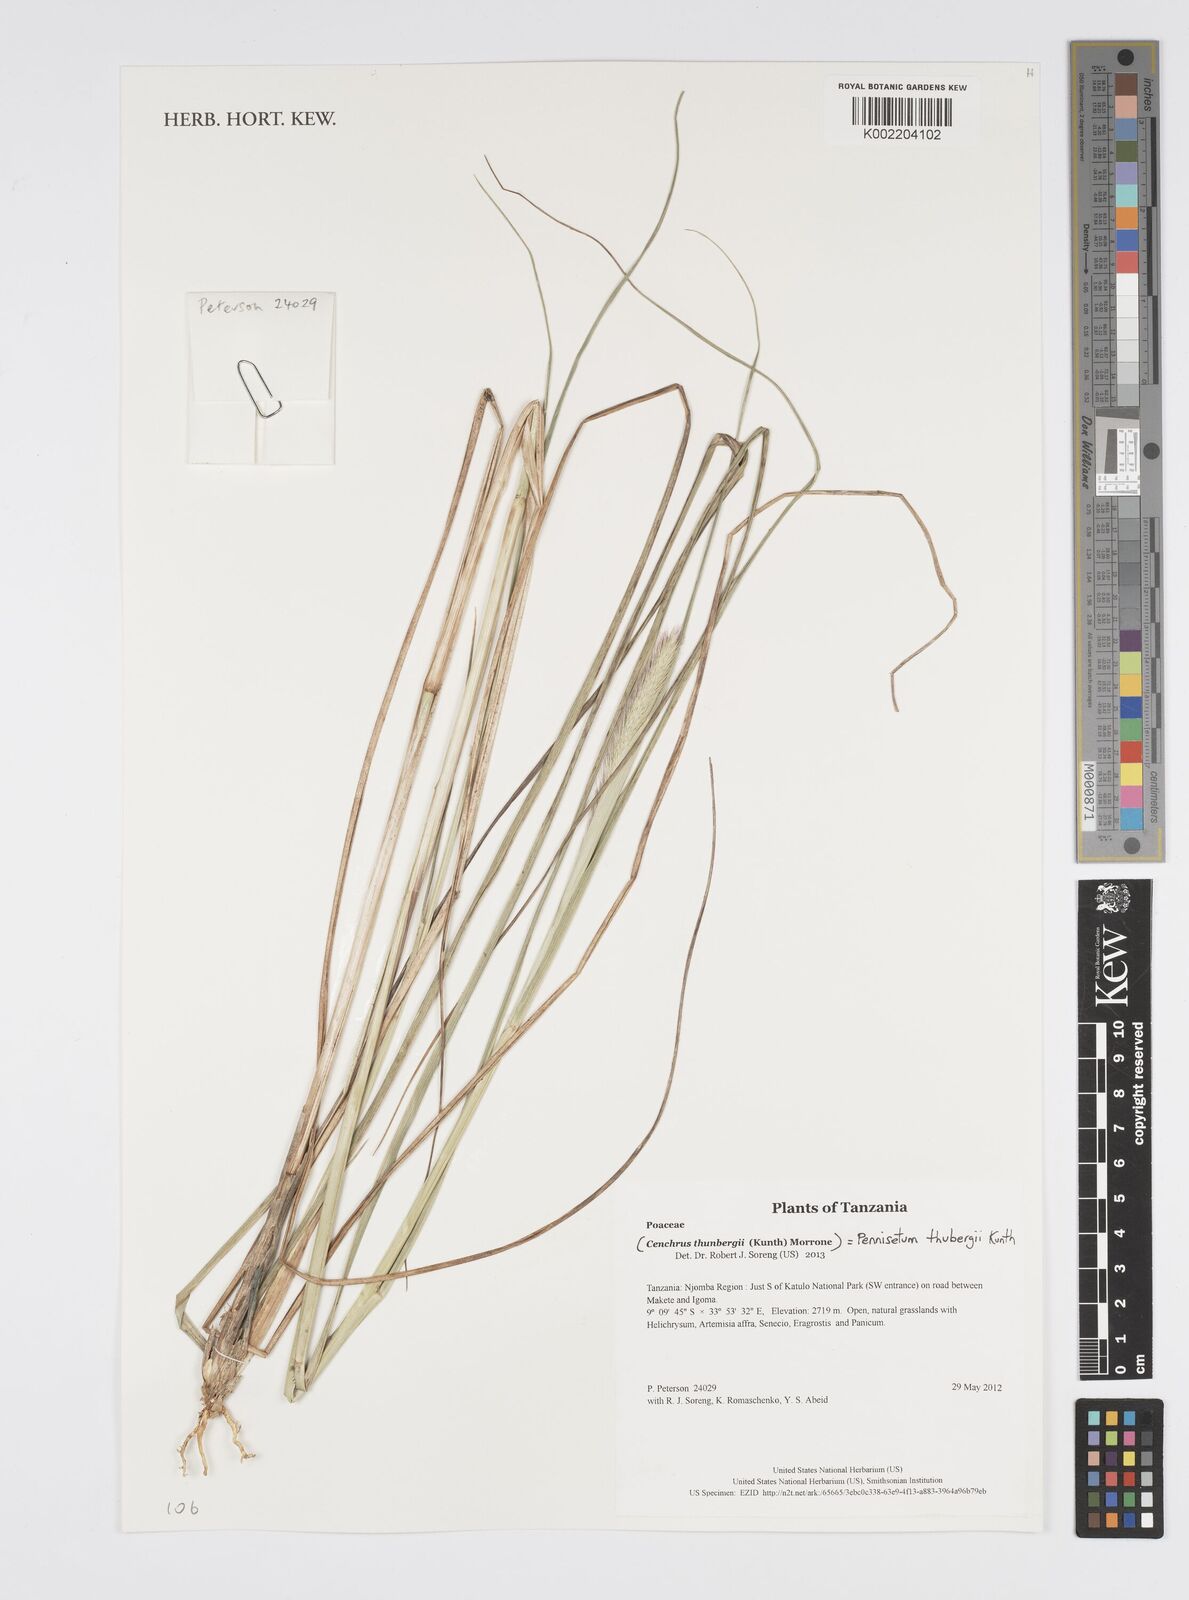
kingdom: Plantae
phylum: Tracheophyta
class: Liliopsida
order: Poales
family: Poaceae
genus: Cenchrus
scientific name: Cenchrus geniculatus
